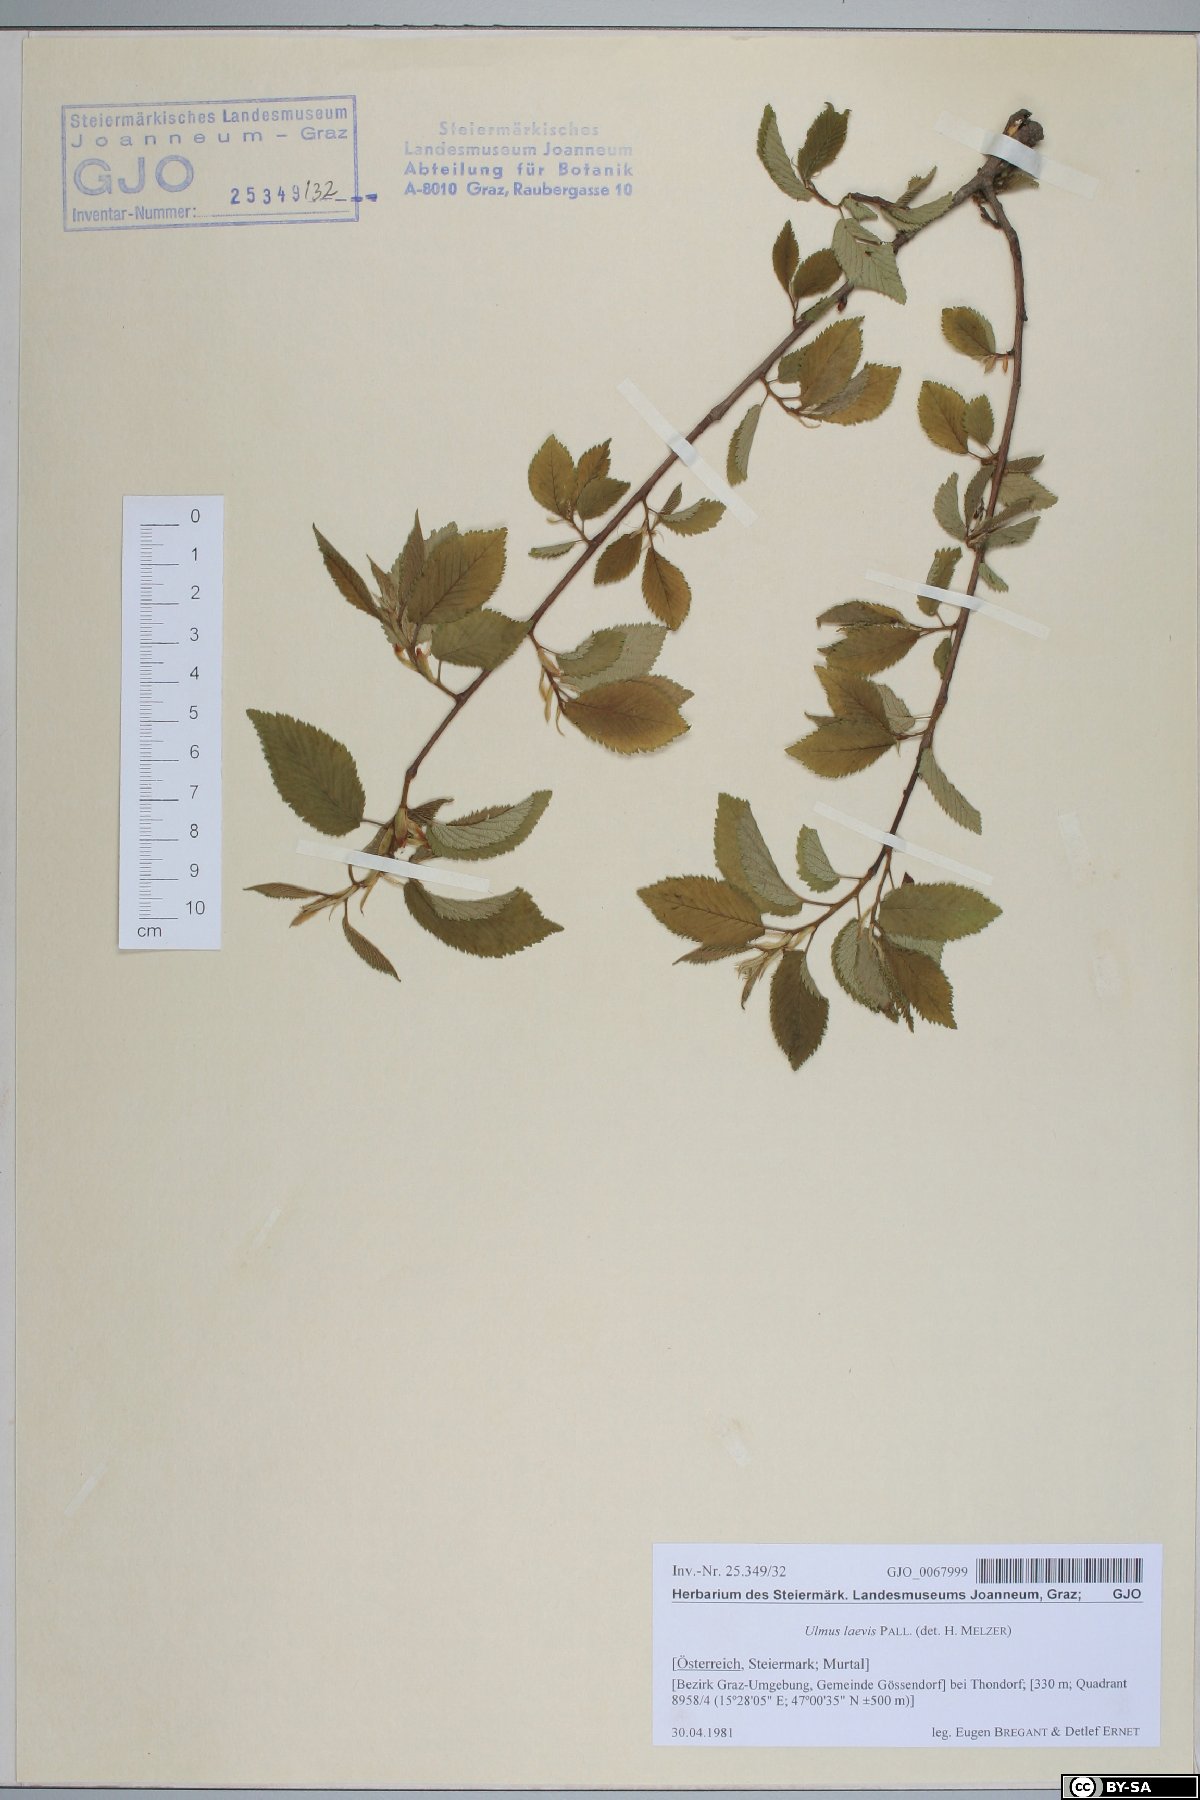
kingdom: Plantae
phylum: Tracheophyta
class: Magnoliopsida
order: Rosales
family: Ulmaceae
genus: Ulmus
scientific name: Ulmus laevis
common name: European white-elm
